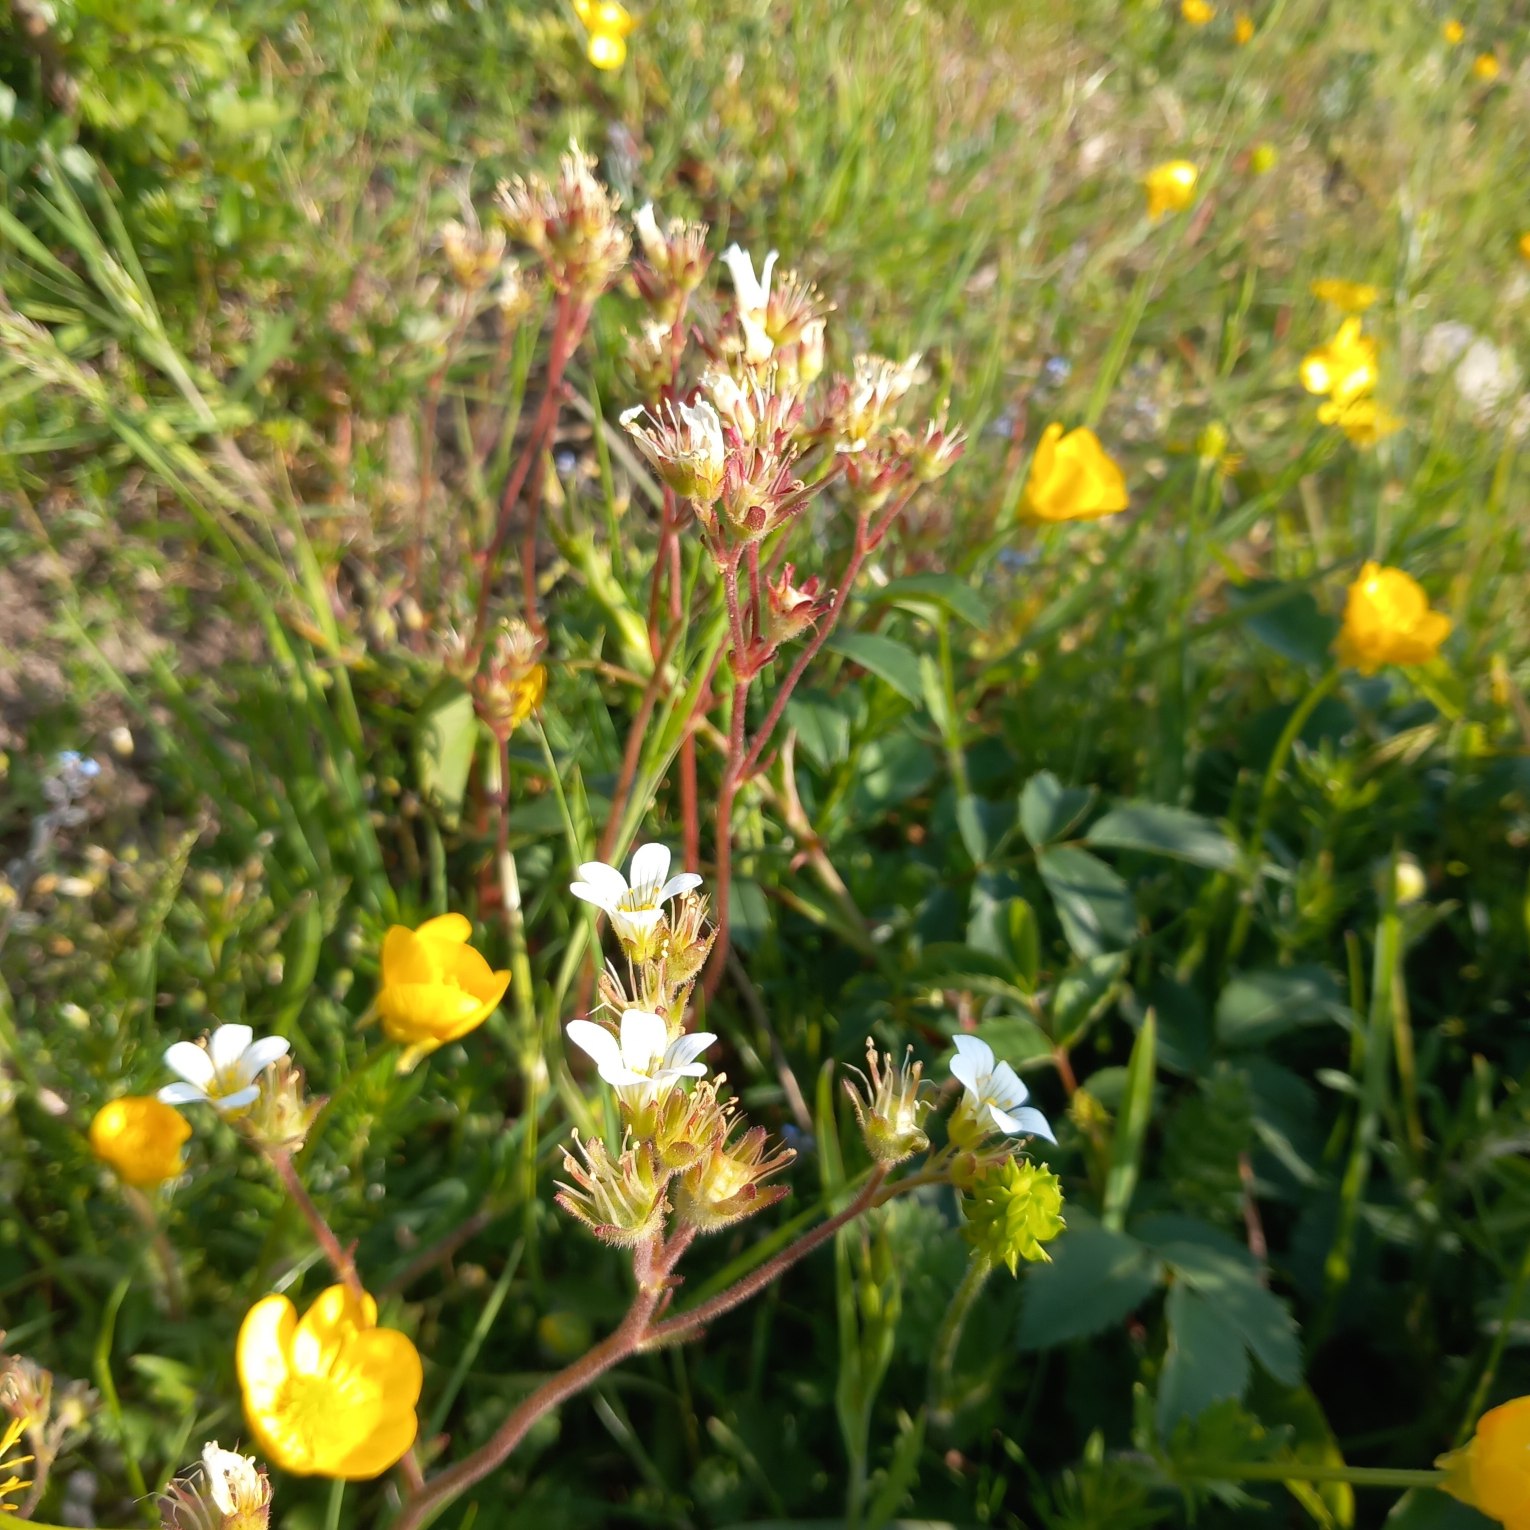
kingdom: Plantae
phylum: Tracheophyta
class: Magnoliopsida
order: Saxifragales
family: Saxifragaceae
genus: Saxifraga
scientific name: Saxifraga granulata
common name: Kornet stenbræk
